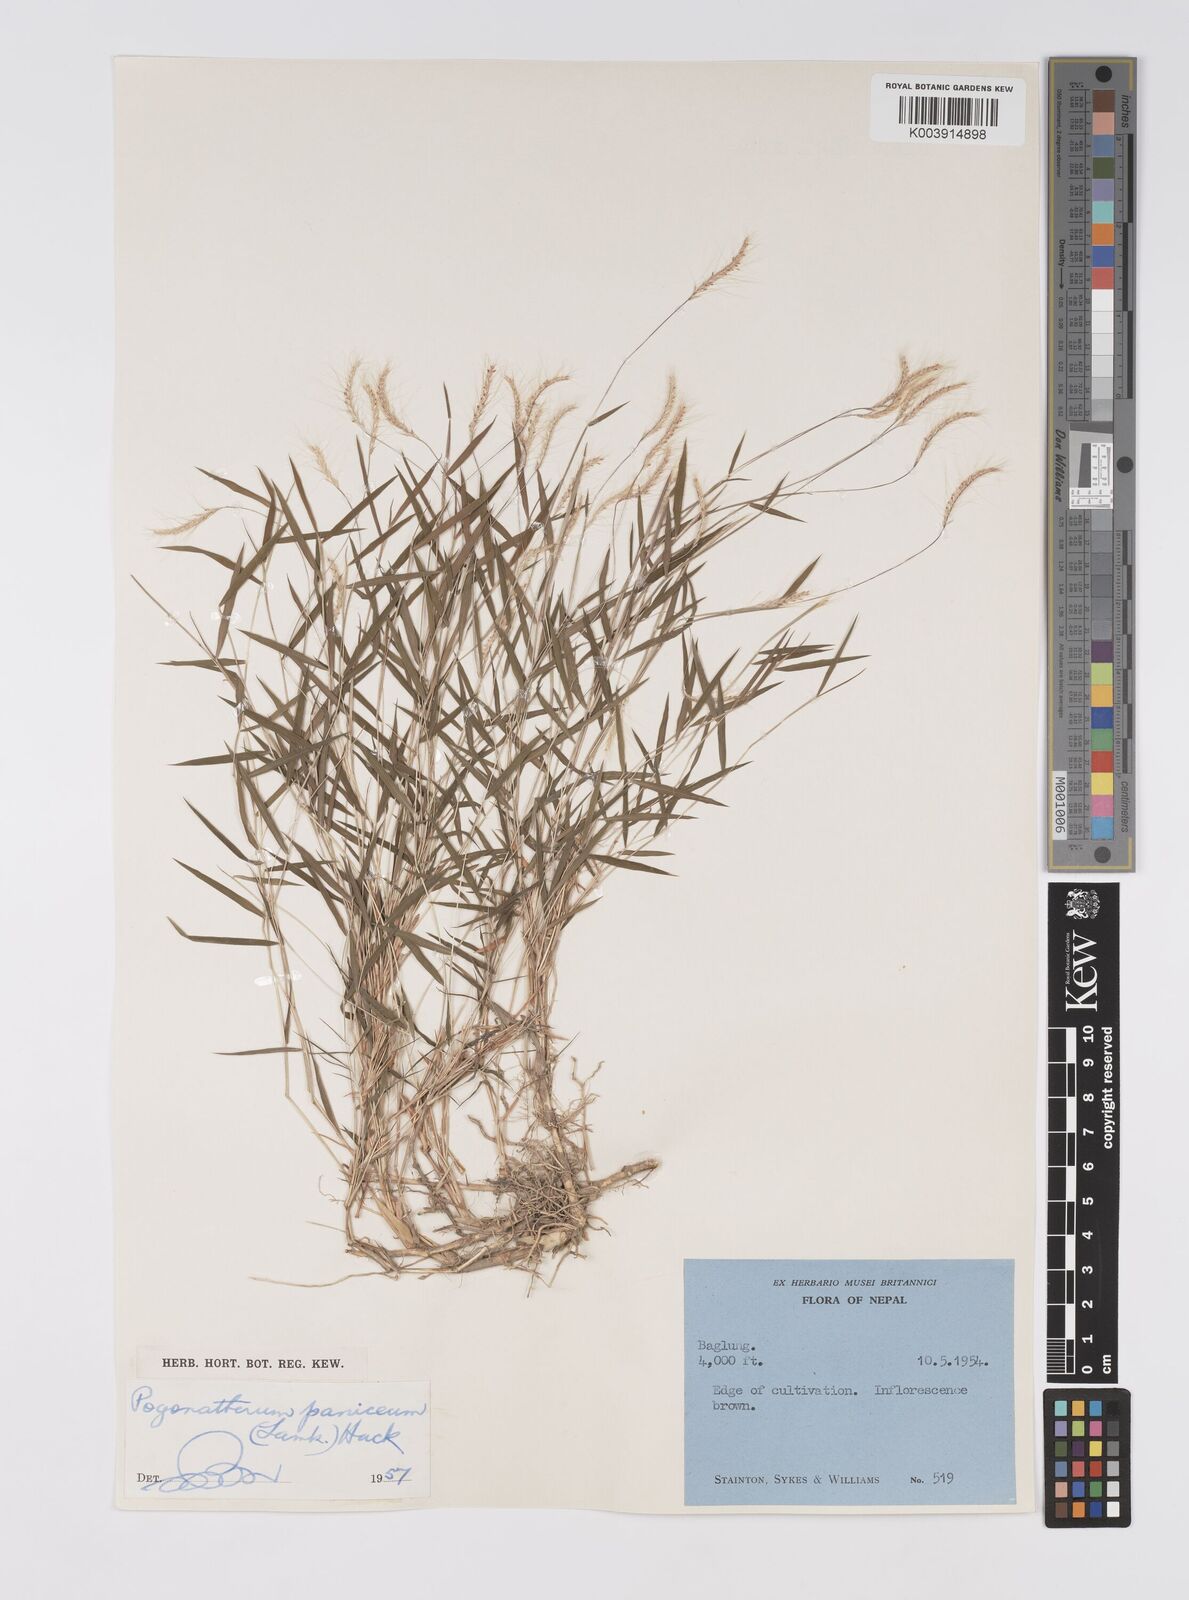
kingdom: Plantae
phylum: Tracheophyta
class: Liliopsida
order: Poales
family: Poaceae
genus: Pogonatherum
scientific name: Pogonatherum paniceum
